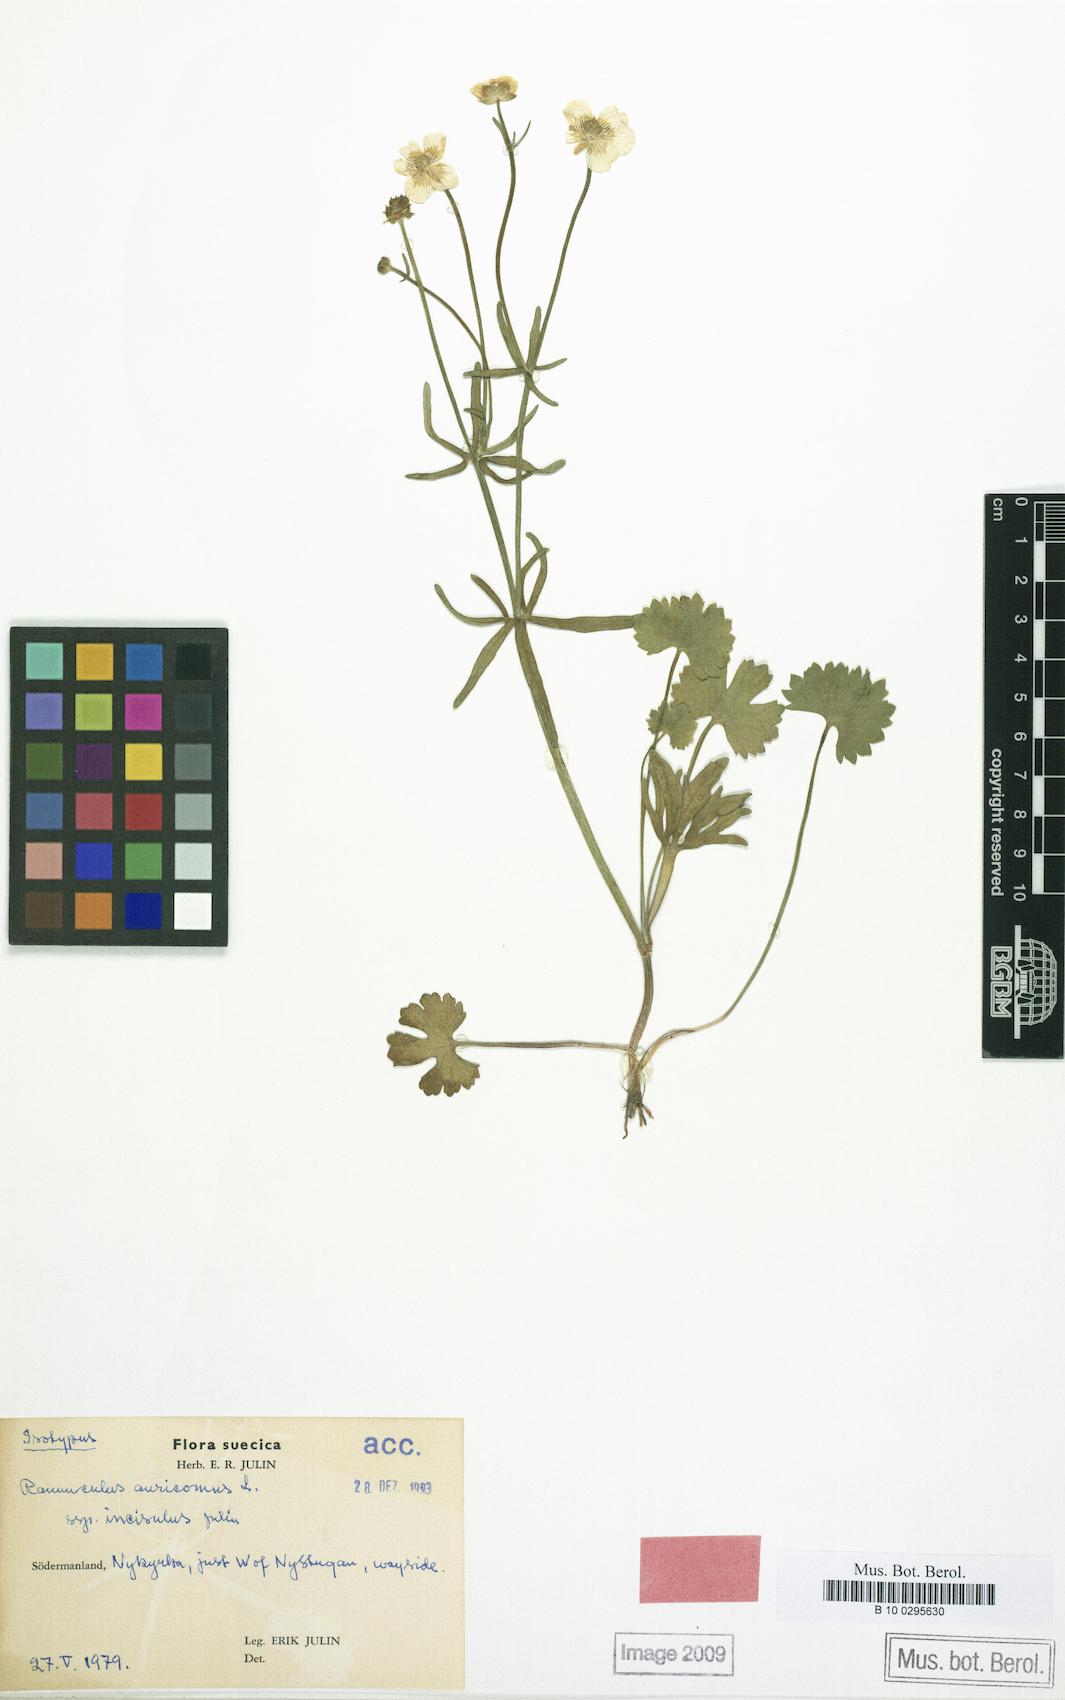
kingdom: Plantae
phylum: Tracheophyta
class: Magnoliopsida
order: Ranunculales
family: Ranunculaceae
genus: Ranunculus
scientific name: Ranunculus incisulus
